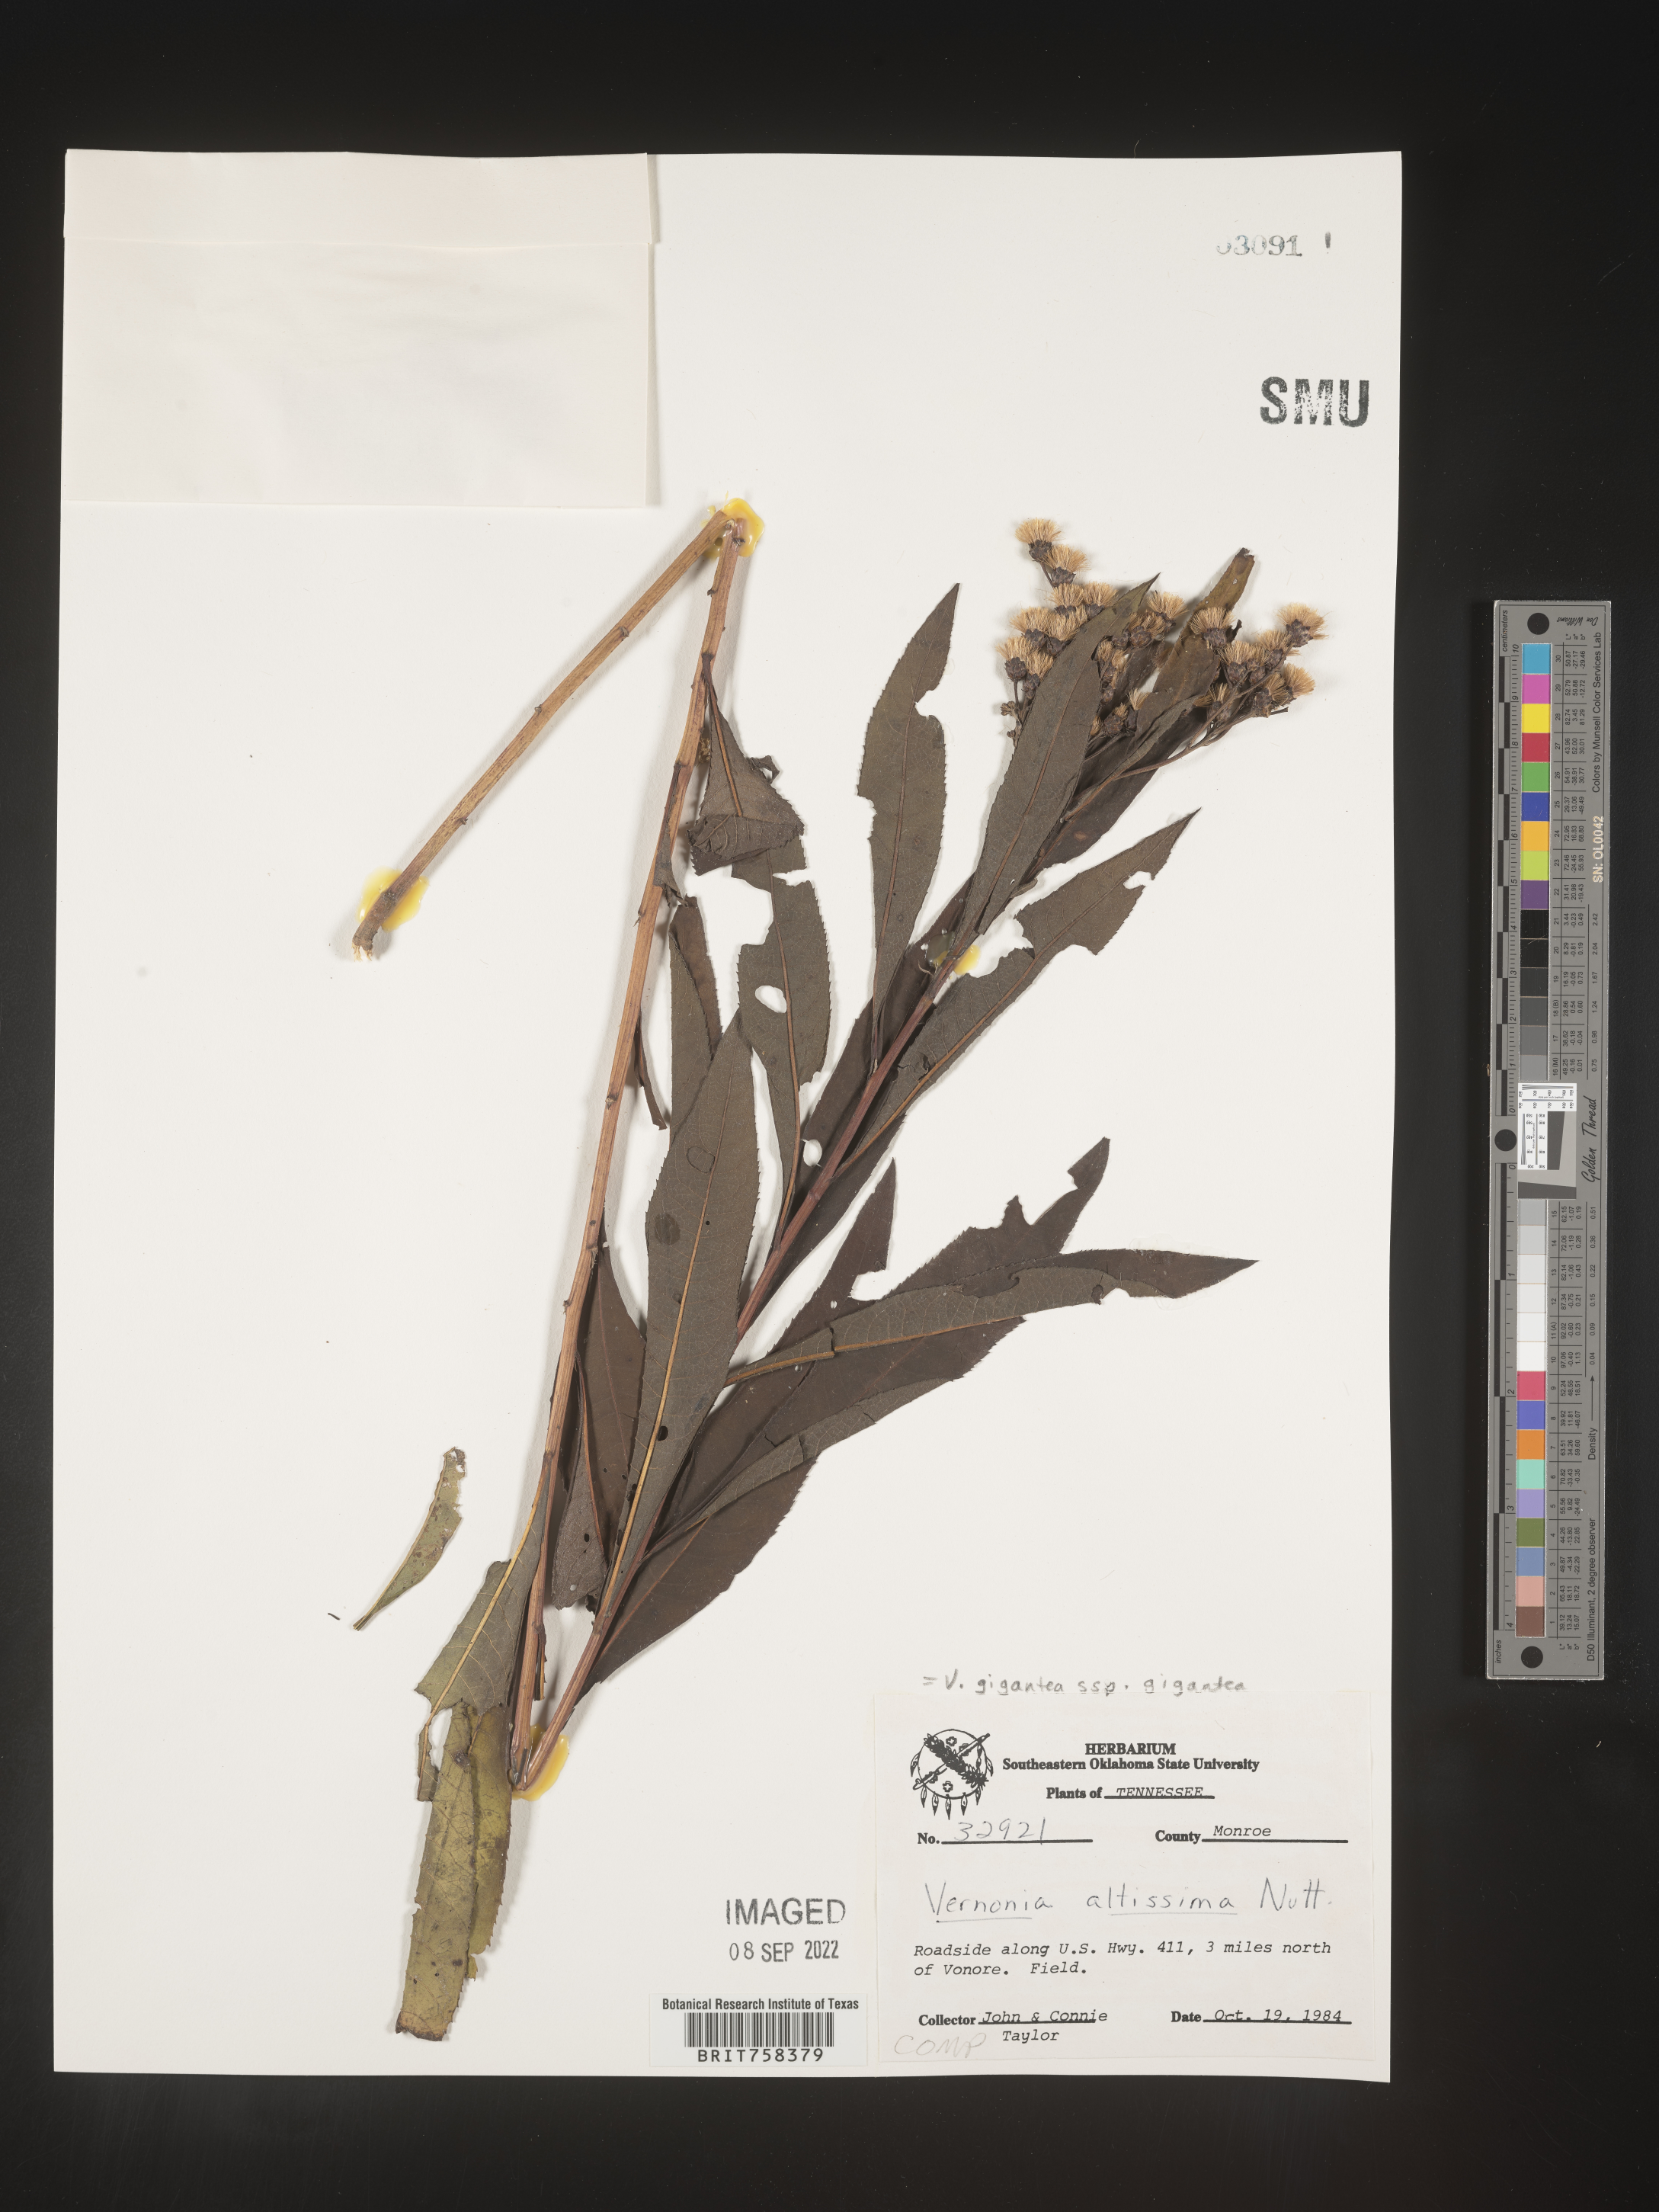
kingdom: Plantae
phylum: Tracheophyta
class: Magnoliopsida
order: Asterales
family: Asteraceae
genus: Vernonia
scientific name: Vernonia gigantea
